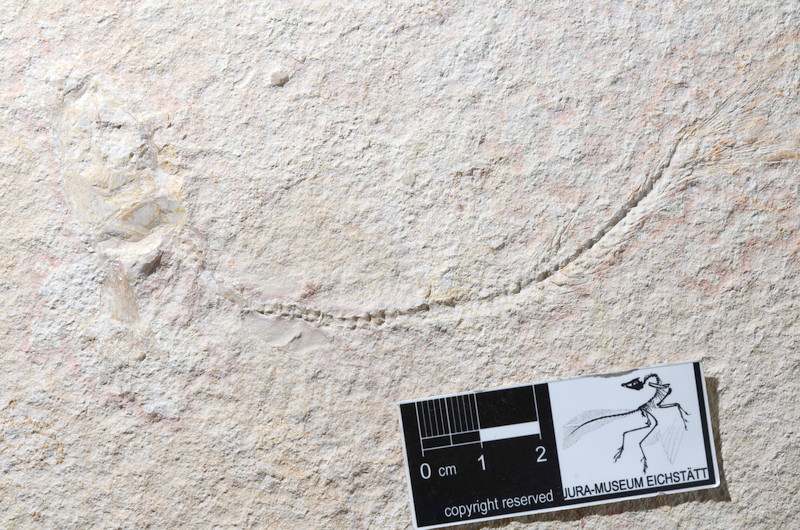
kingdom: Animalia
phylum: Chordata
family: Ascalaboidae
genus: Tharsis
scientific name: Tharsis dubius
